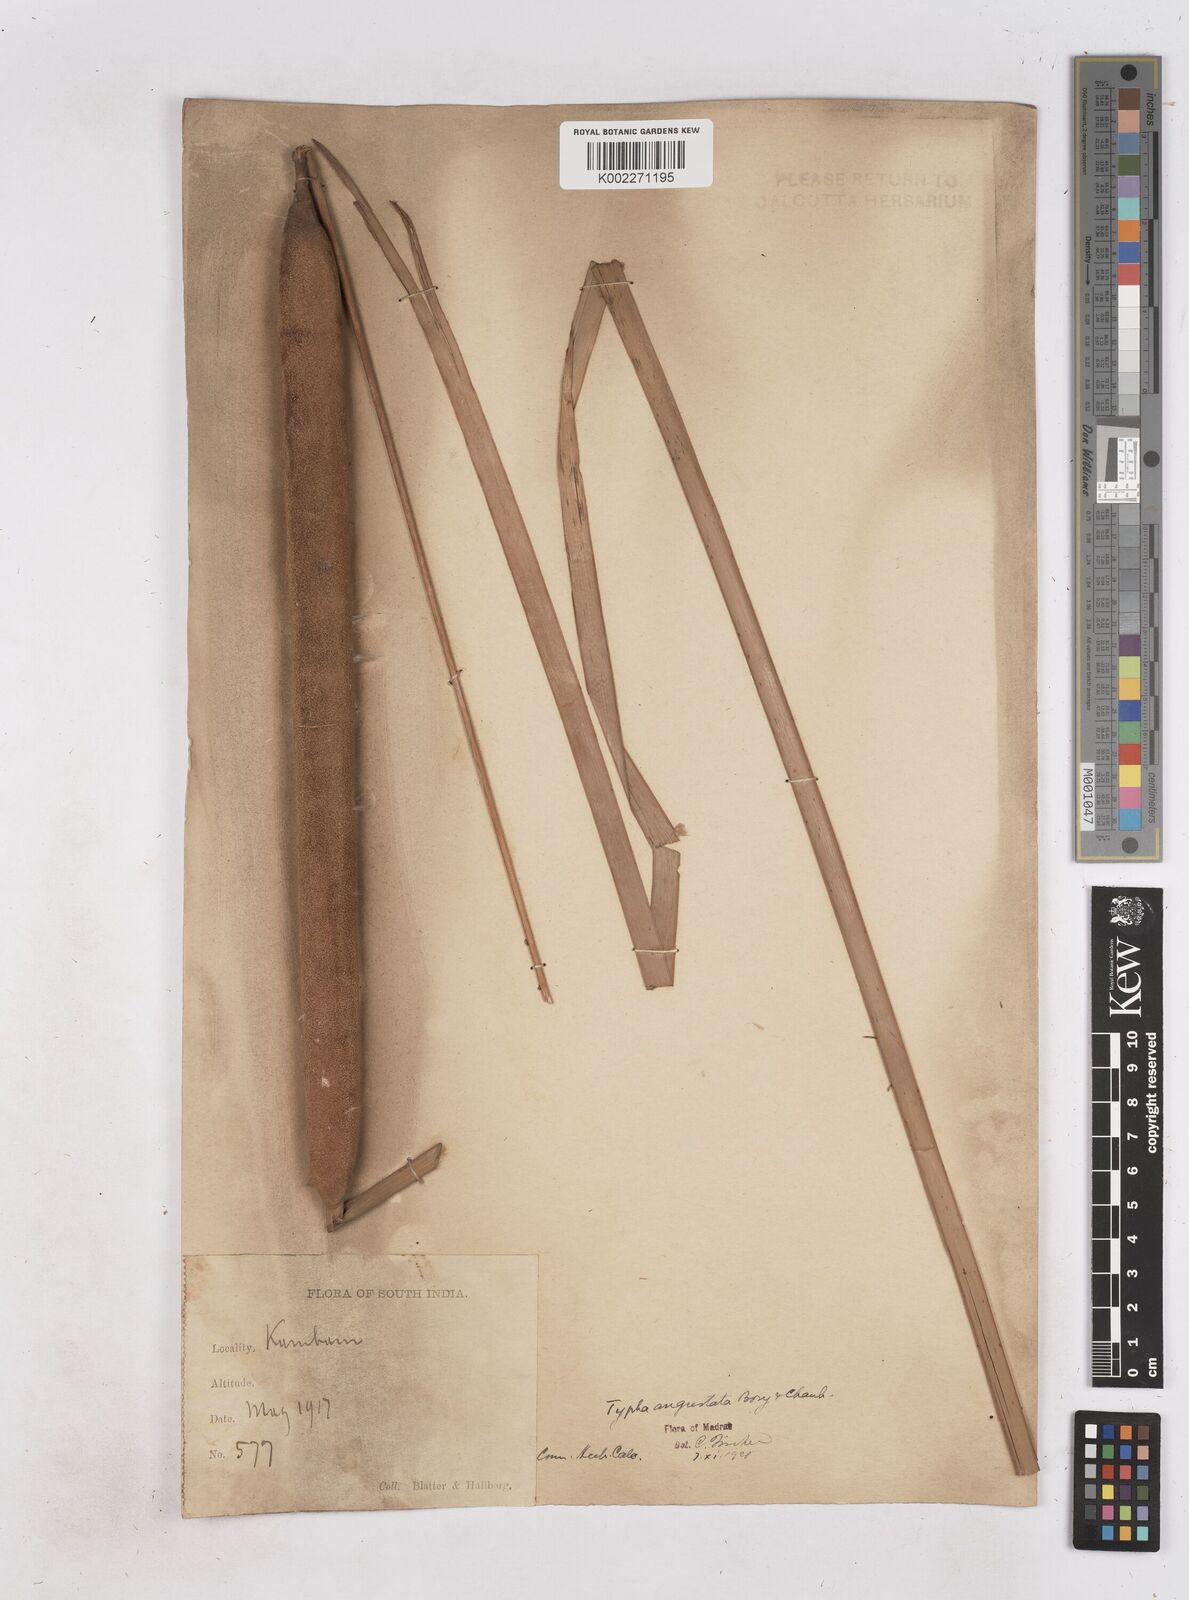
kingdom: Plantae
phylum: Tracheophyta
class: Liliopsida
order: Poales
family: Typhaceae
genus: Typha
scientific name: Typha domingensis
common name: Southern cattail
